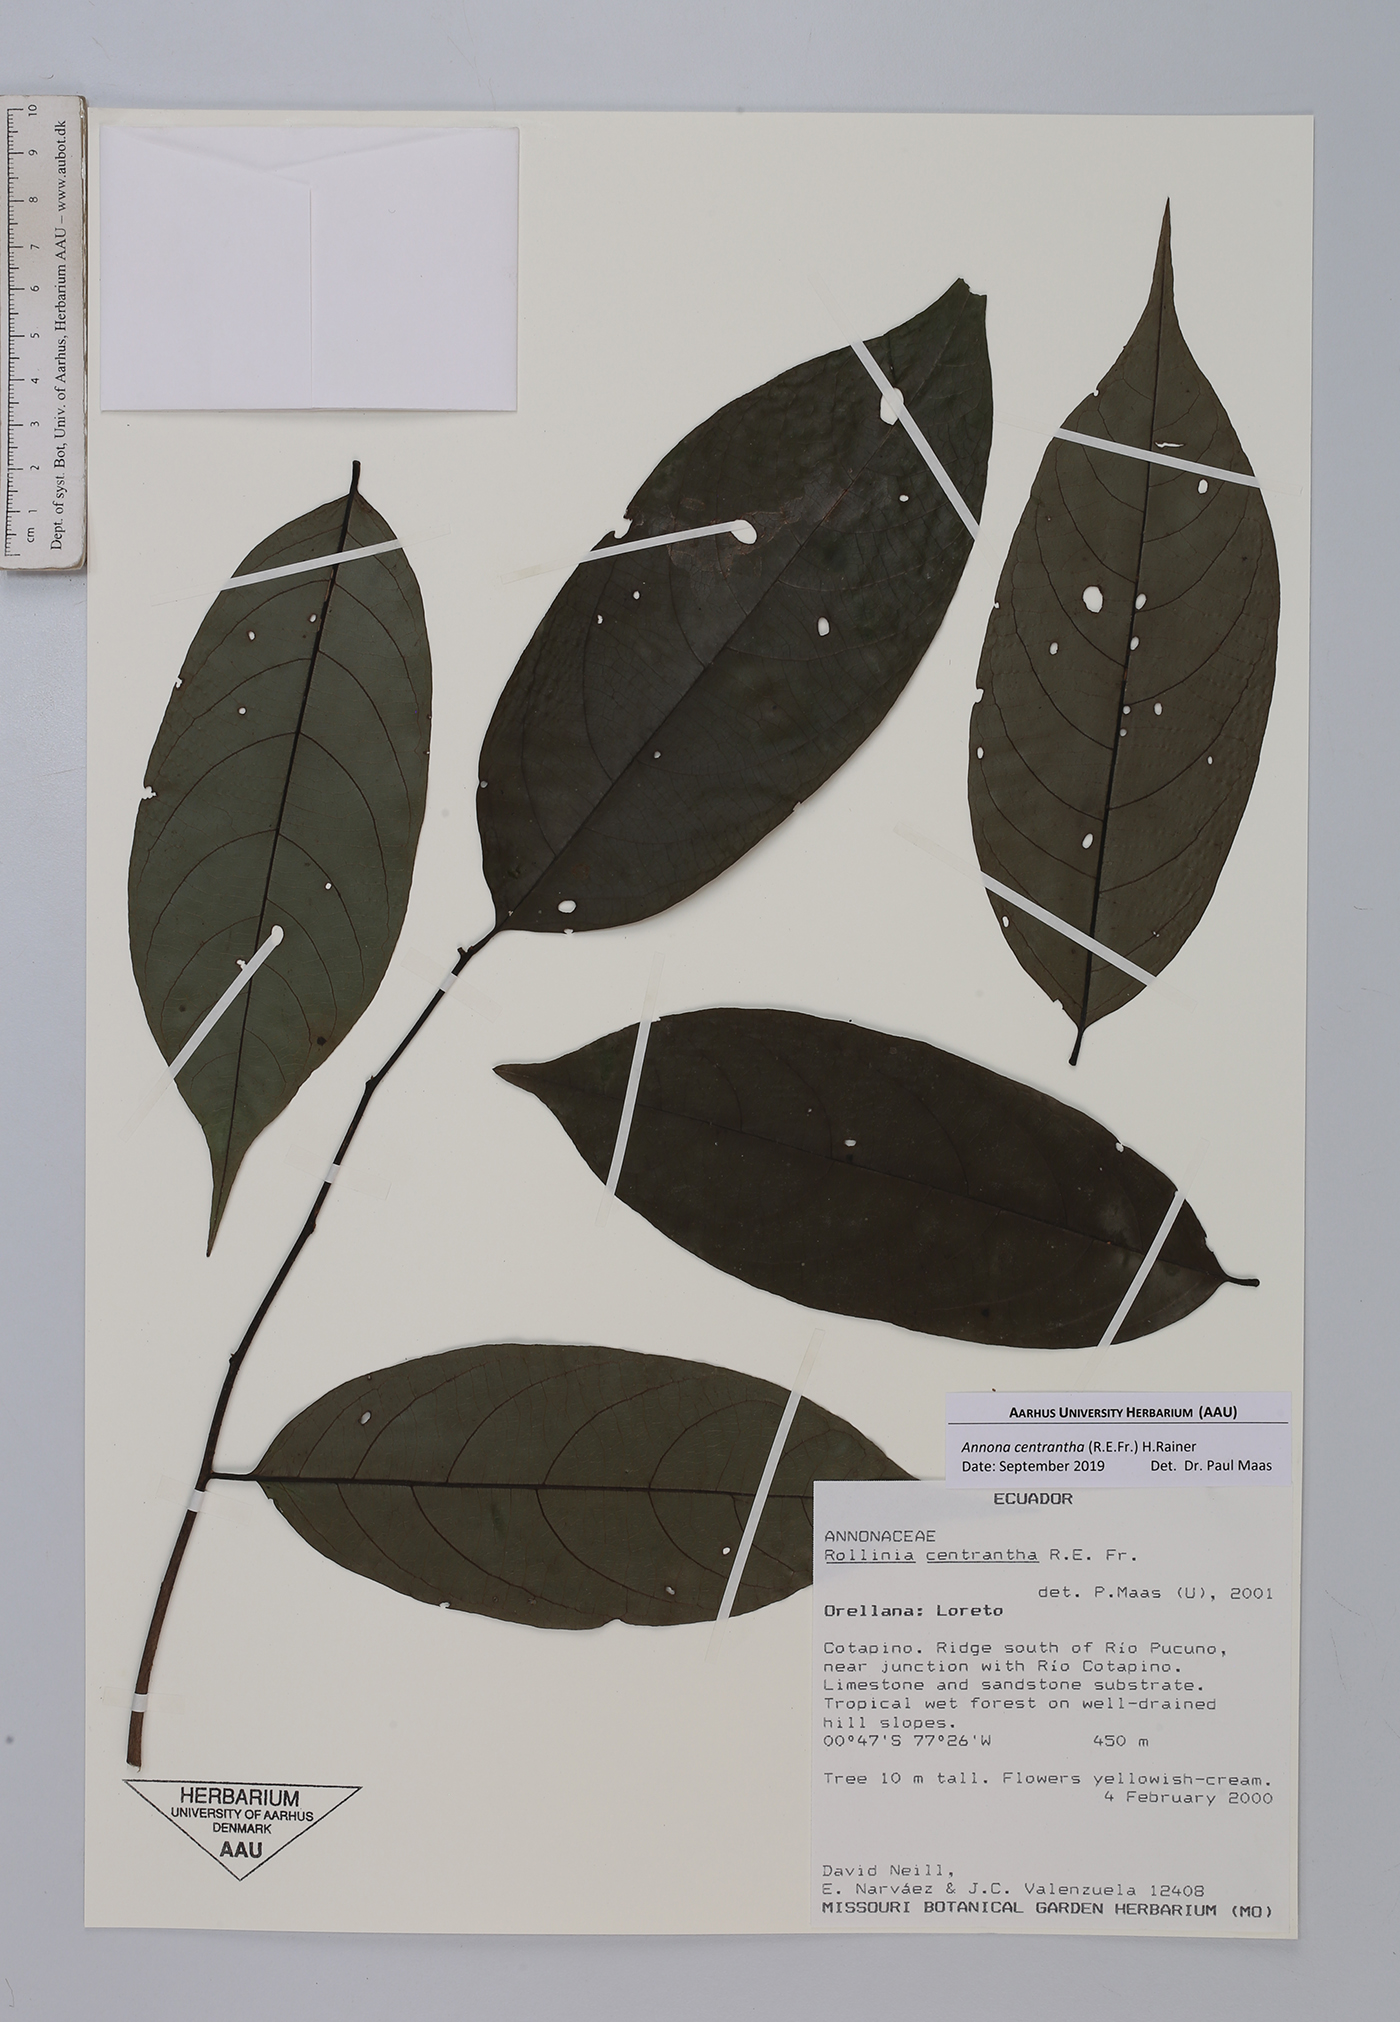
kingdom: Plantae
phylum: Tracheophyta
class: Magnoliopsida
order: Magnoliales
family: Annonaceae
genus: Annona
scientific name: Annona centrantha
